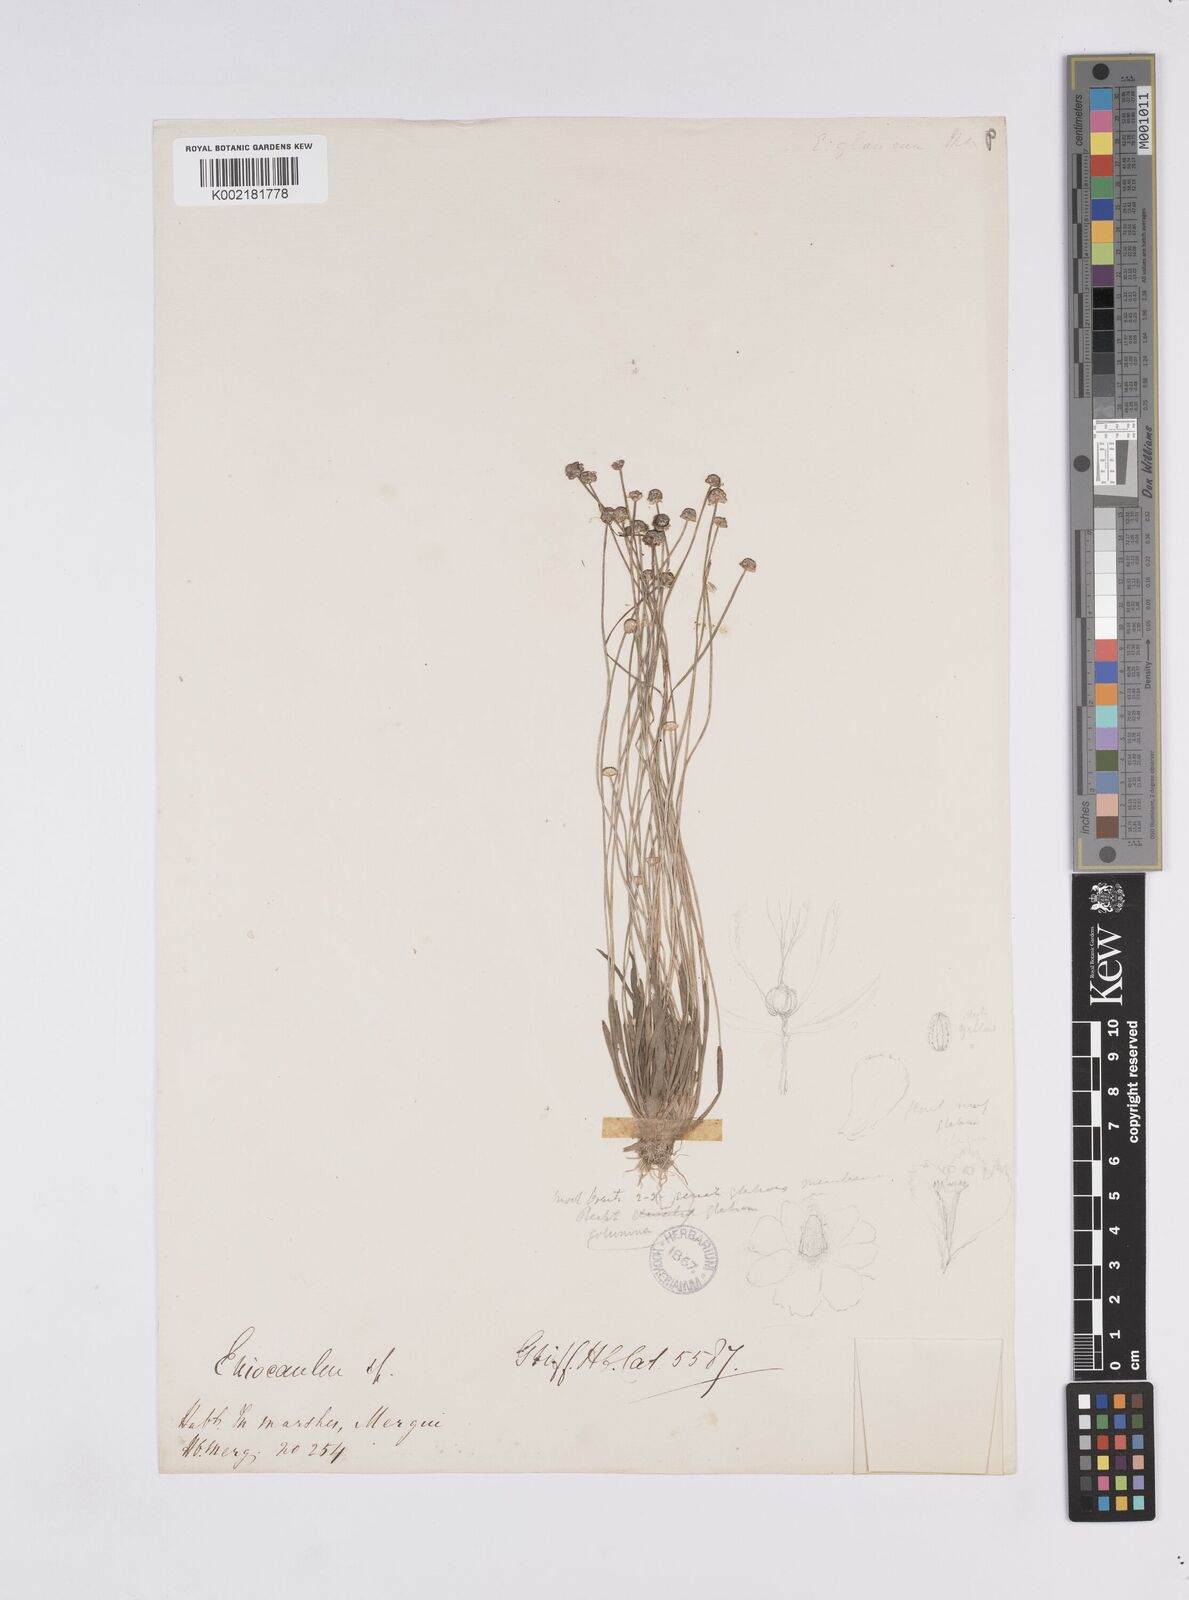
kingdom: Plantae
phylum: Tracheophyta
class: Liliopsida
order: Poales
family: Eriocaulaceae
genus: Eriocaulon
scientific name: Eriocaulon truncatum
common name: Short pipe-wort
